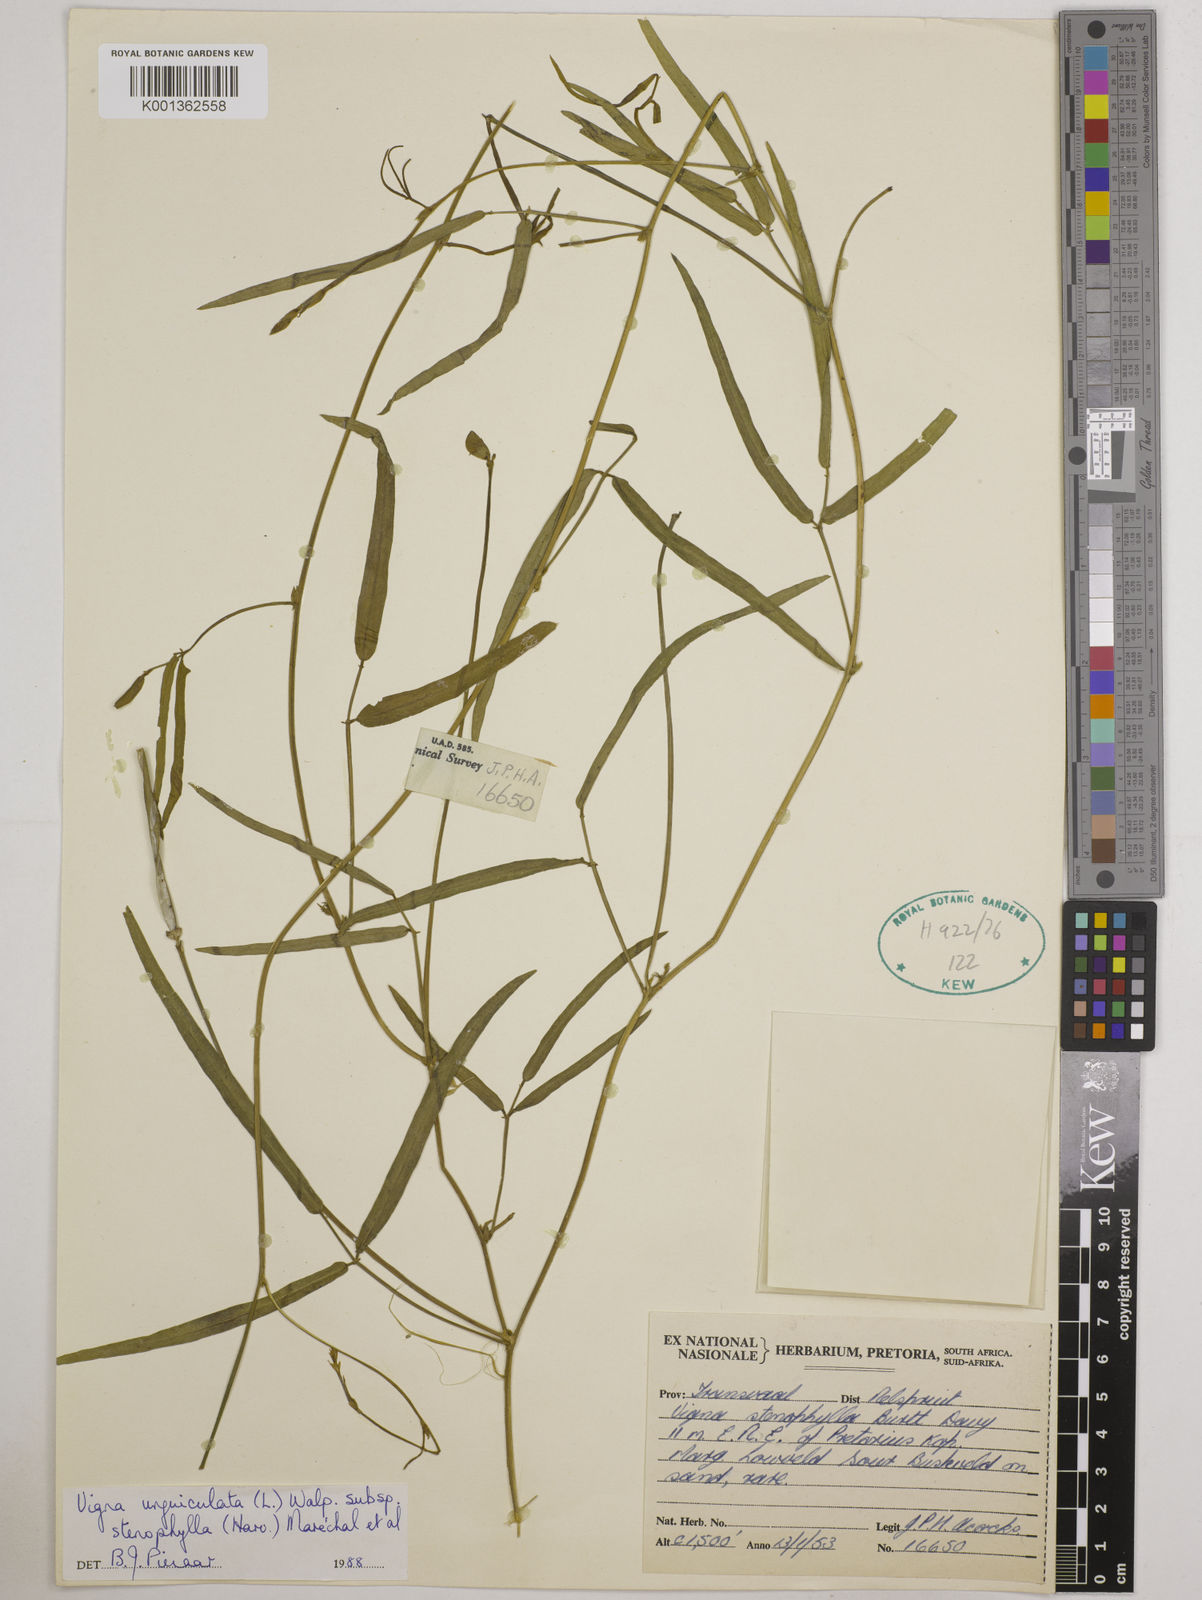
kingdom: Plantae
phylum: Tracheophyta
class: Magnoliopsida
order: Fabales
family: Fabaceae
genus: Vigna
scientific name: Vigna
